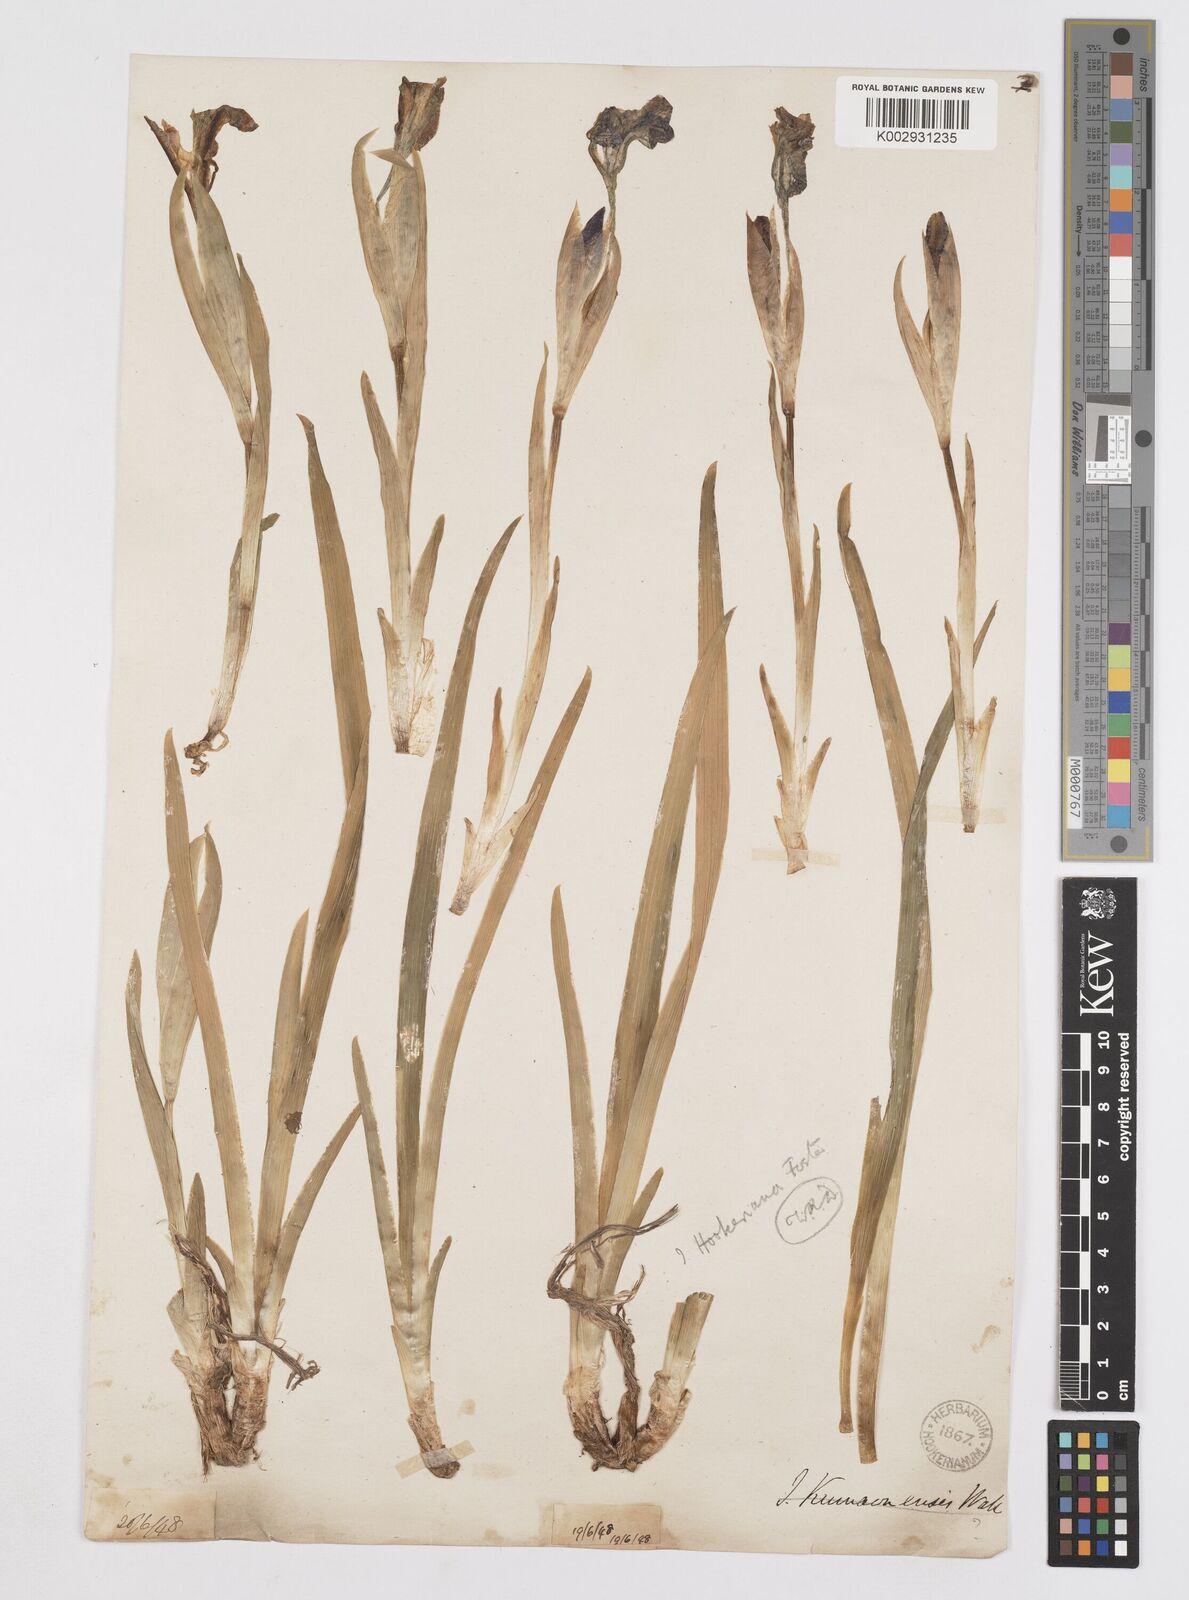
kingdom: Plantae
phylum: Tracheophyta
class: Liliopsida
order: Asparagales
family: Iridaceae
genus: Iris
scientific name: Iris hookeriana
